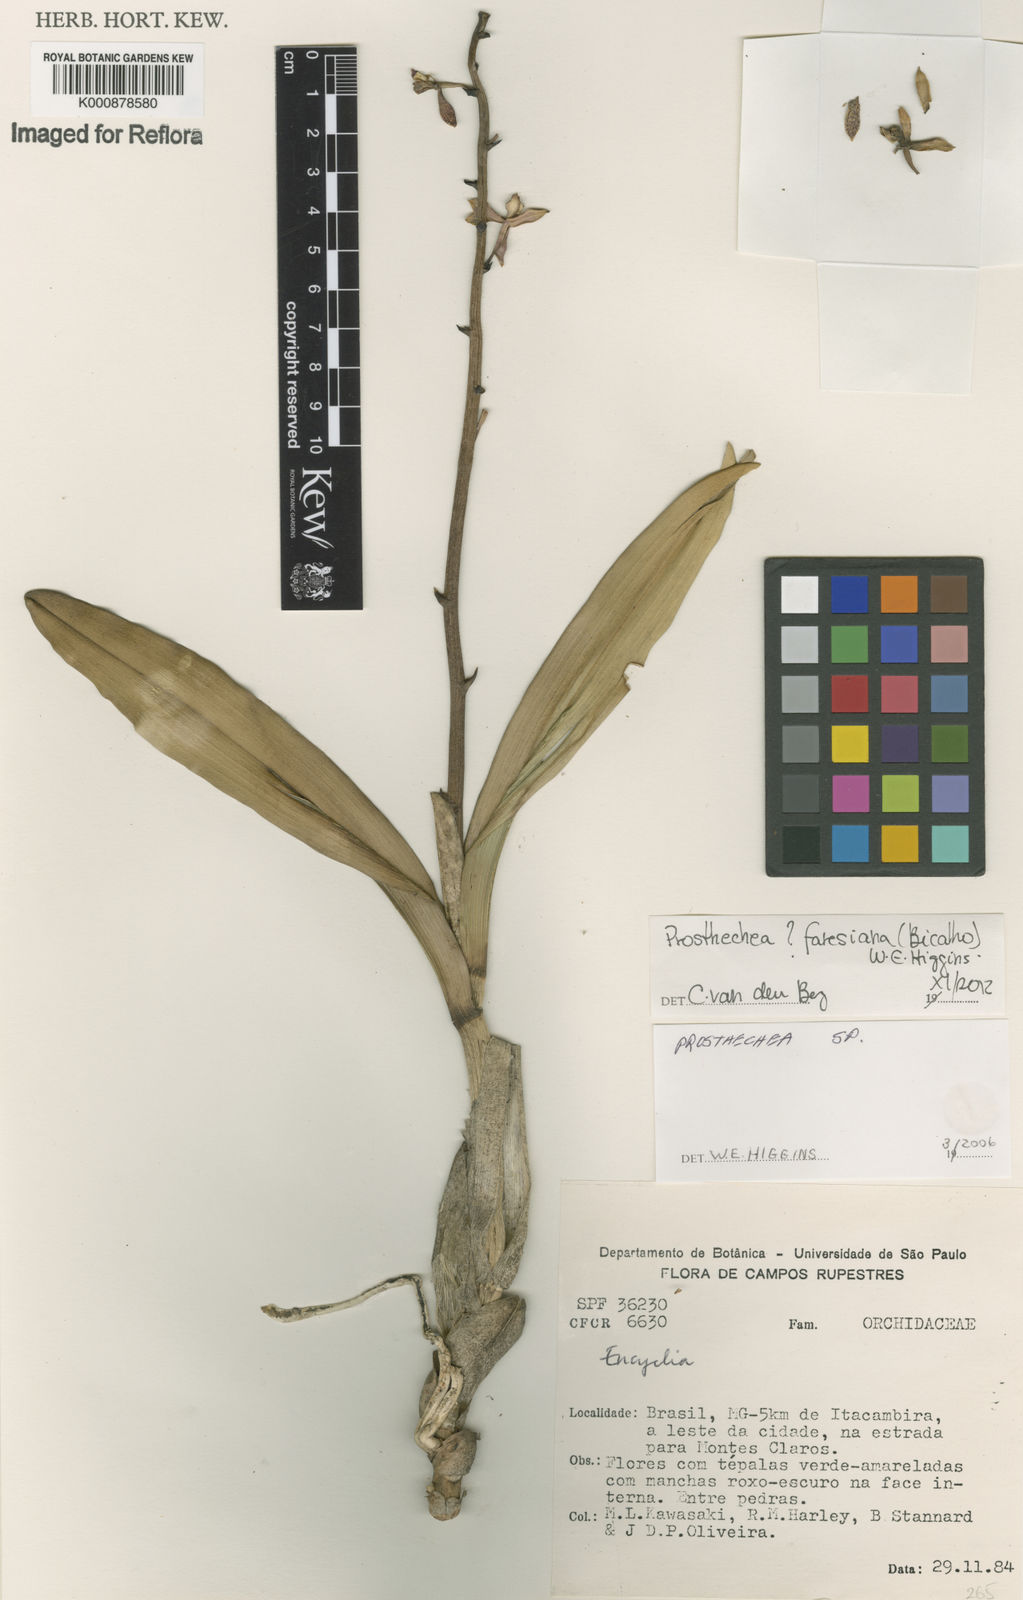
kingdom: Plantae
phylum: Tracheophyta
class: Liliopsida
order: Asparagales
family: Orchidaceae
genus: Prosthechea
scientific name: Prosthechea faresiana
